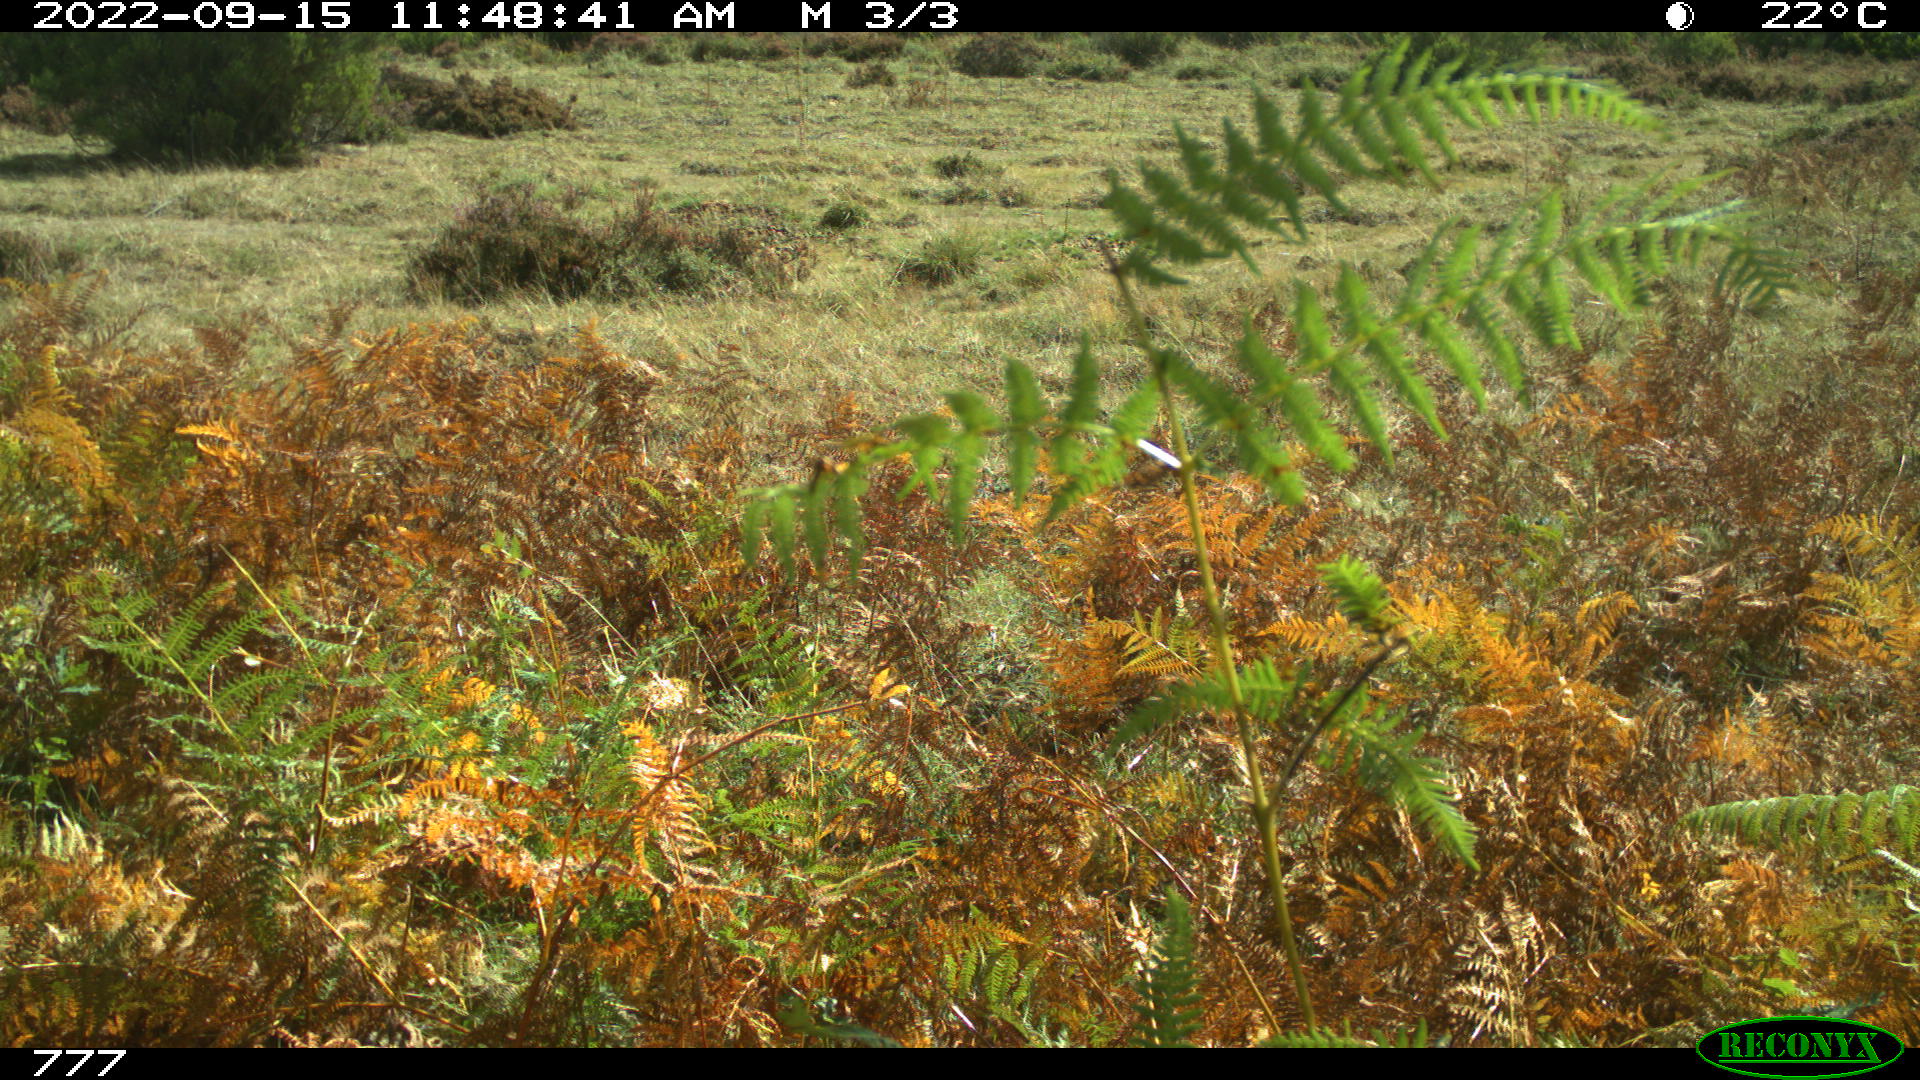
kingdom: Animalia
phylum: Chordata
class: Mammalia
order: Perissodactyla
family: Equidae
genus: Equus
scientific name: Equus caballus
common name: Horse
